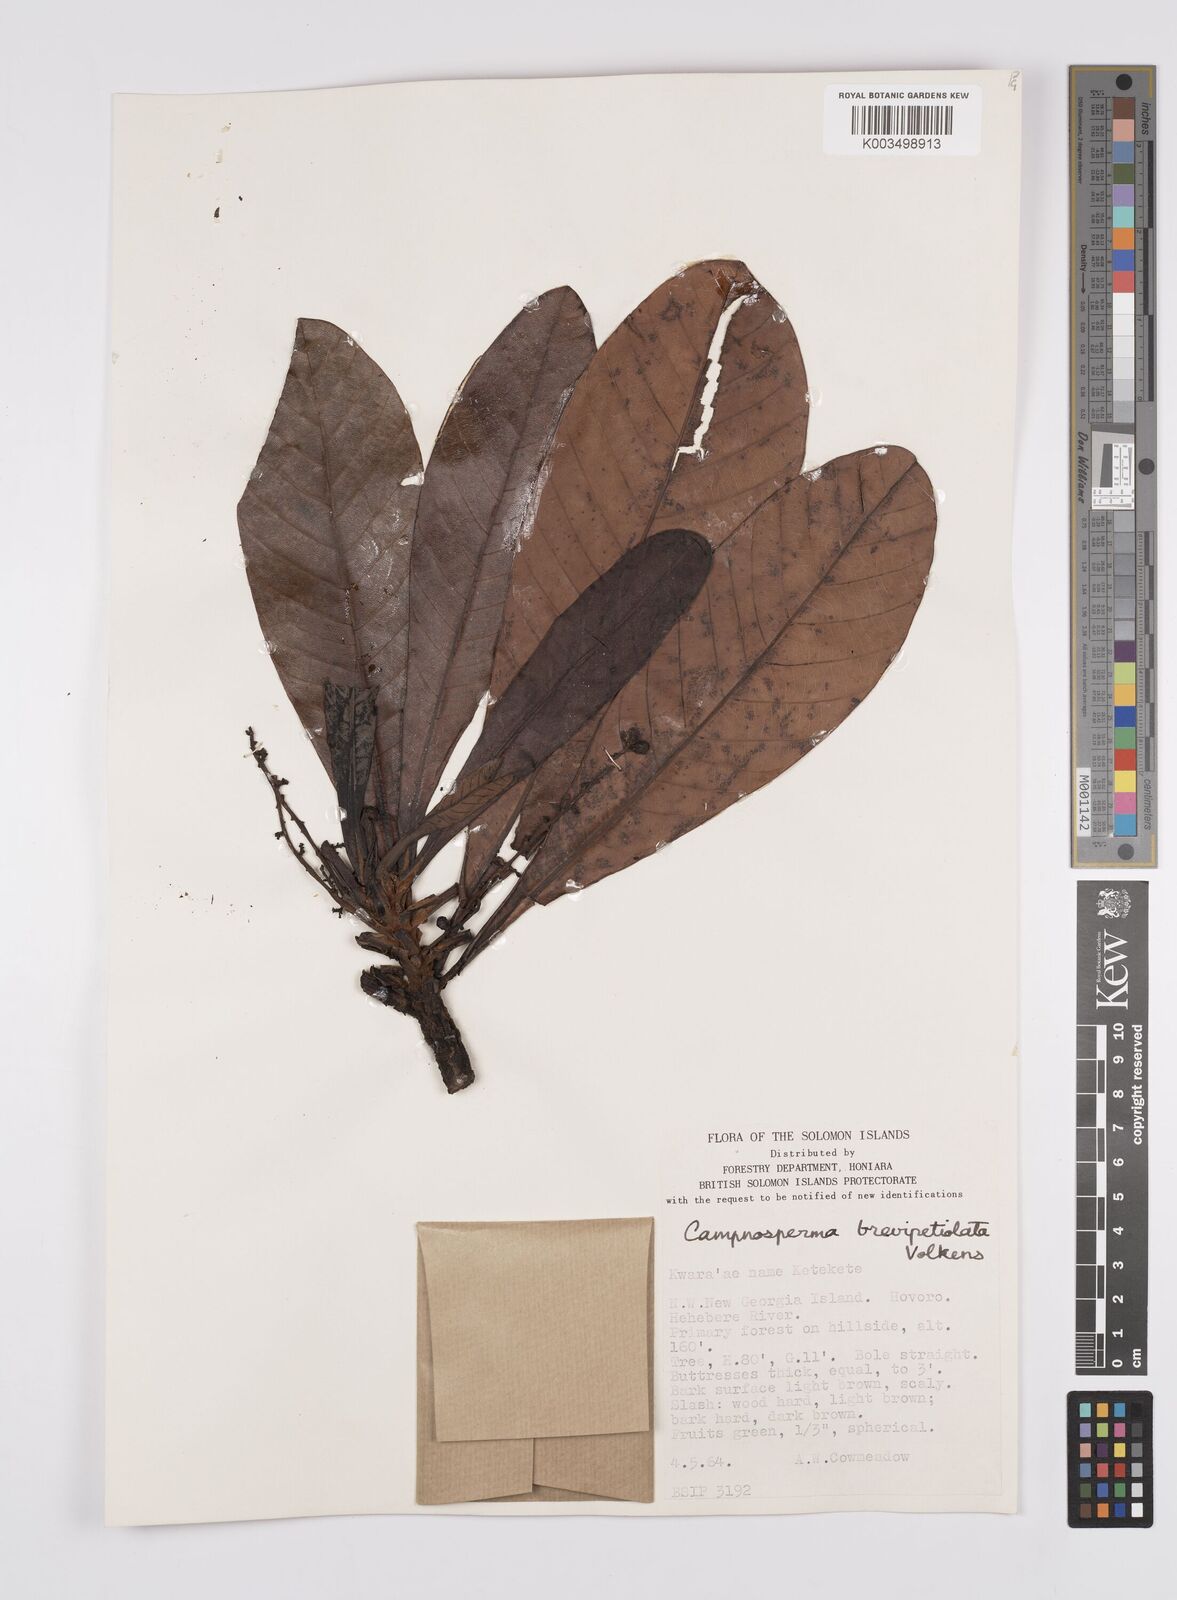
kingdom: Plantae
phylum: Tracheophyta
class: Magnoliopsida
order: Sapindales
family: Anacardiaceae
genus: Campnosperma
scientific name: Campnosperma brevipetiolatum
